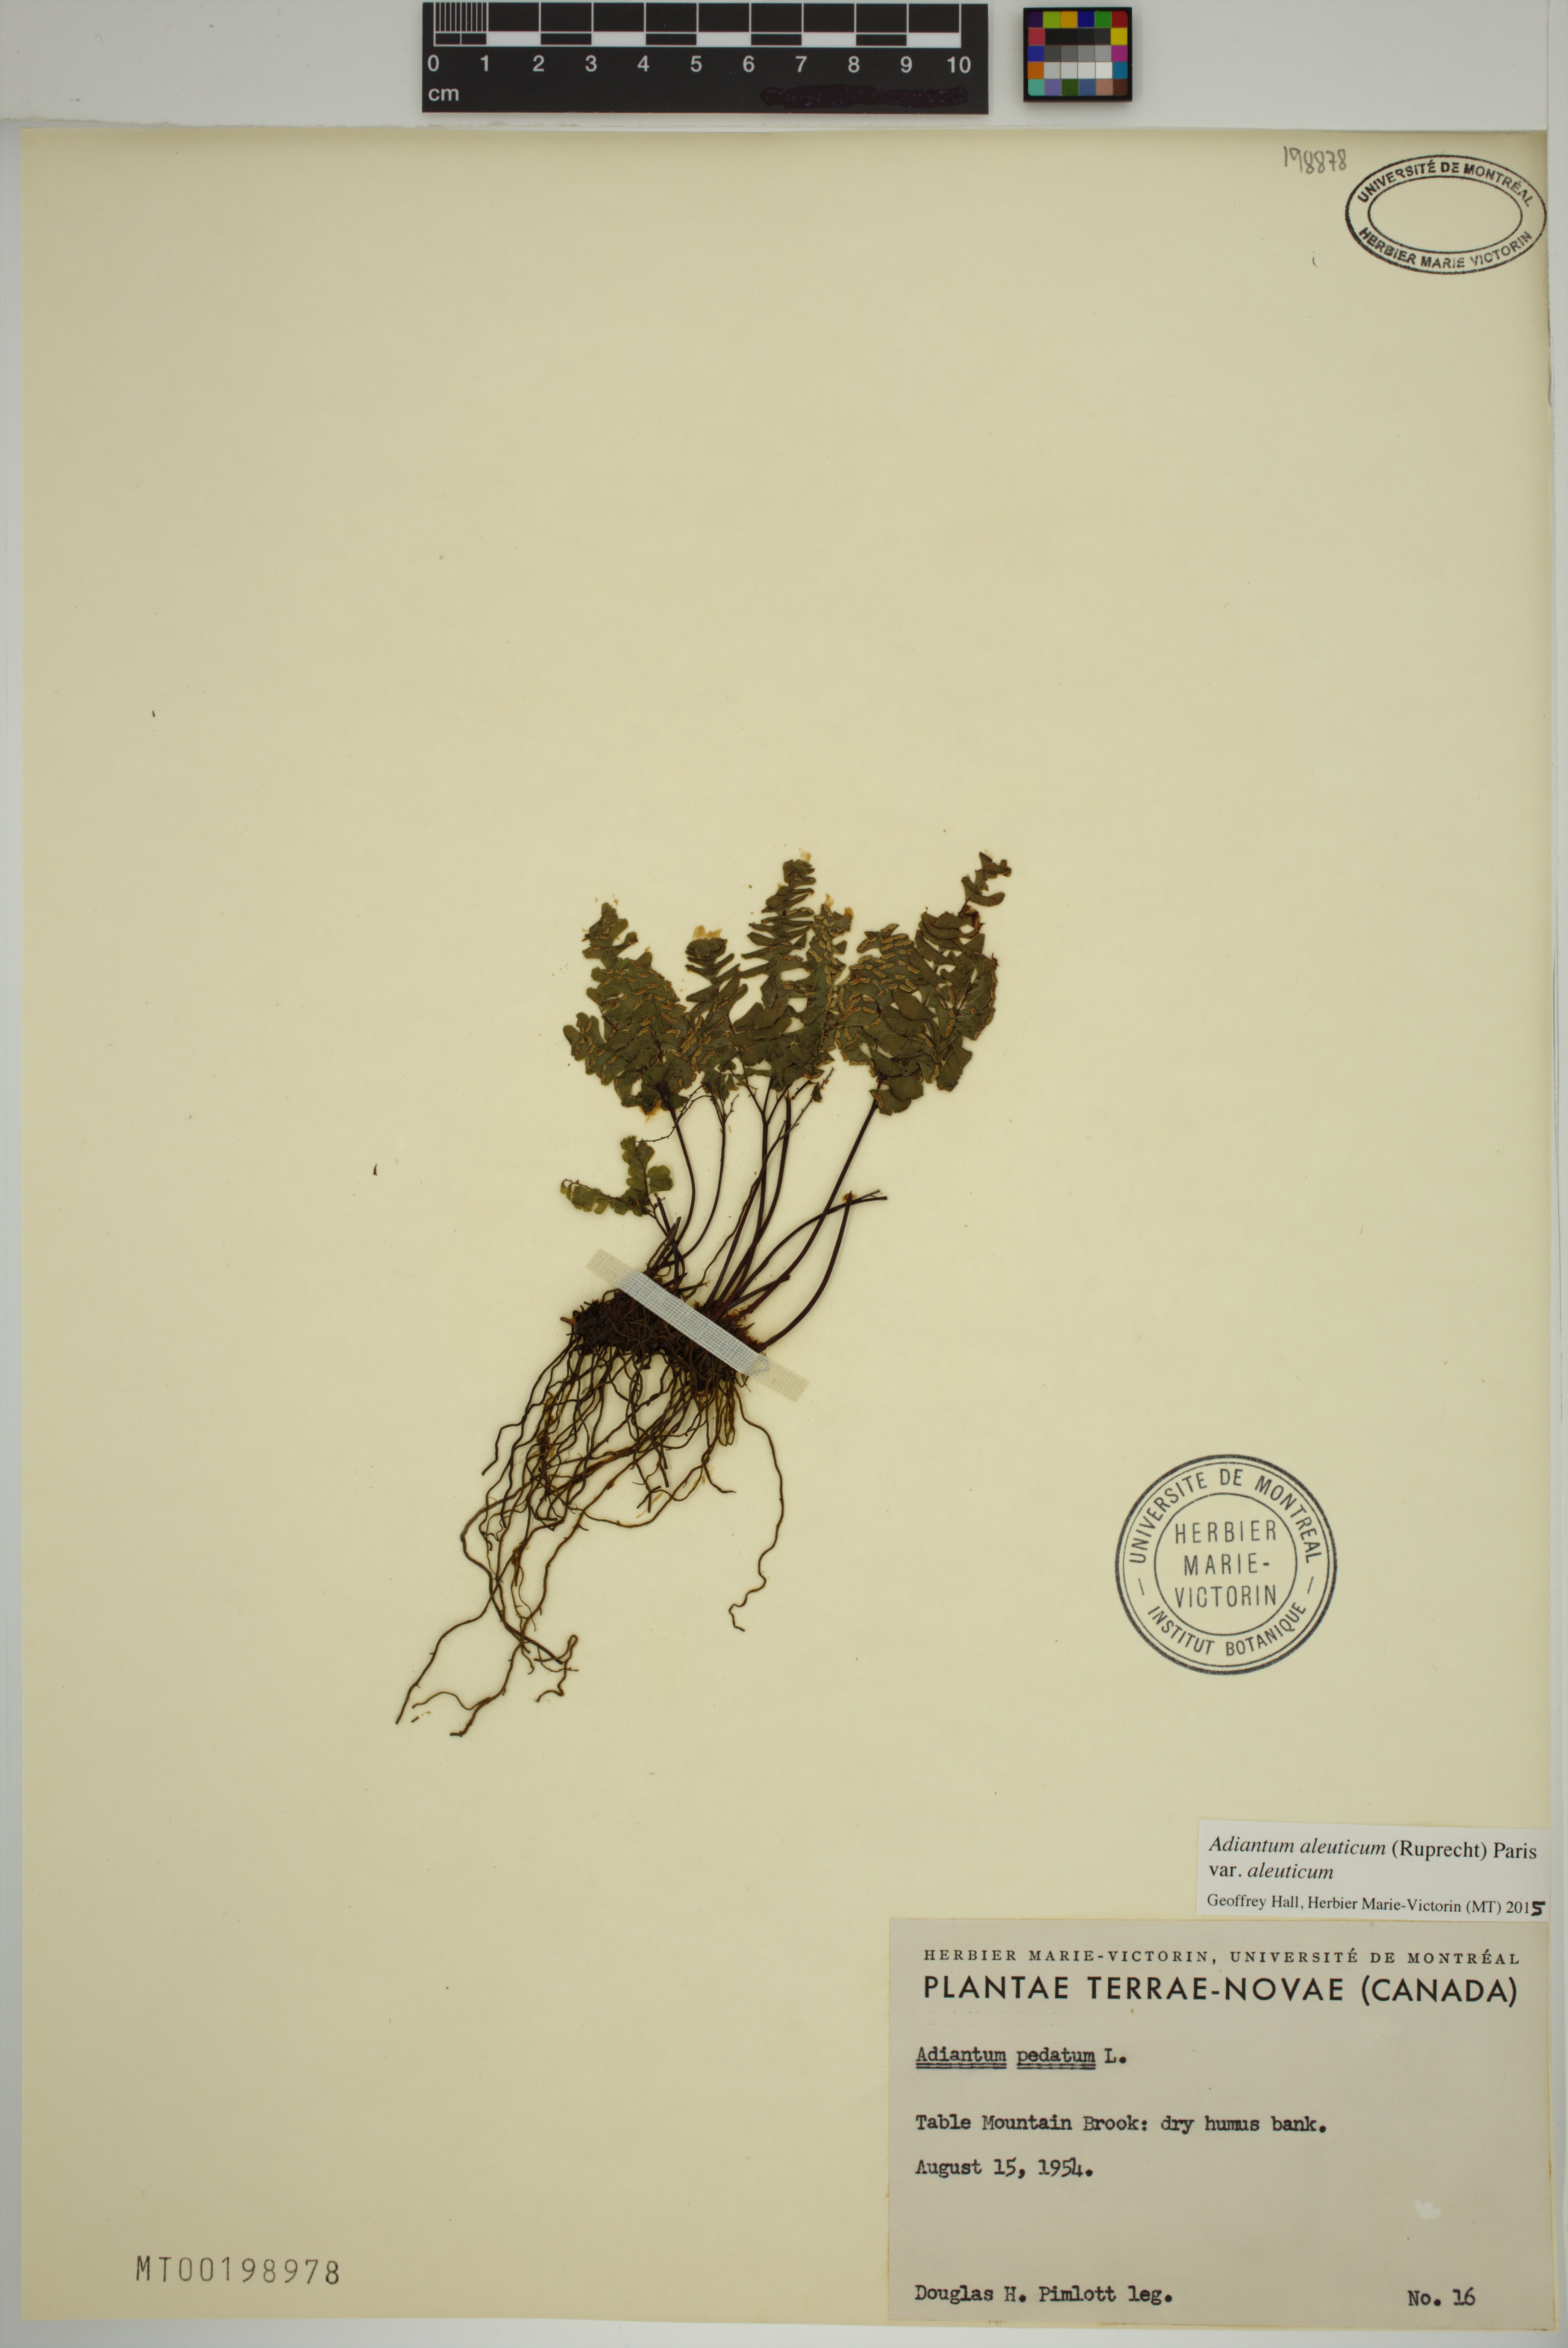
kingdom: Plantae
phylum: Tracheophyta
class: Polypodiopsida
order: Polypodiales
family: Pteridaceae
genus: Adiantum
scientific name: Adiantum aleuticum
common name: Aleutian maidenhair fern
